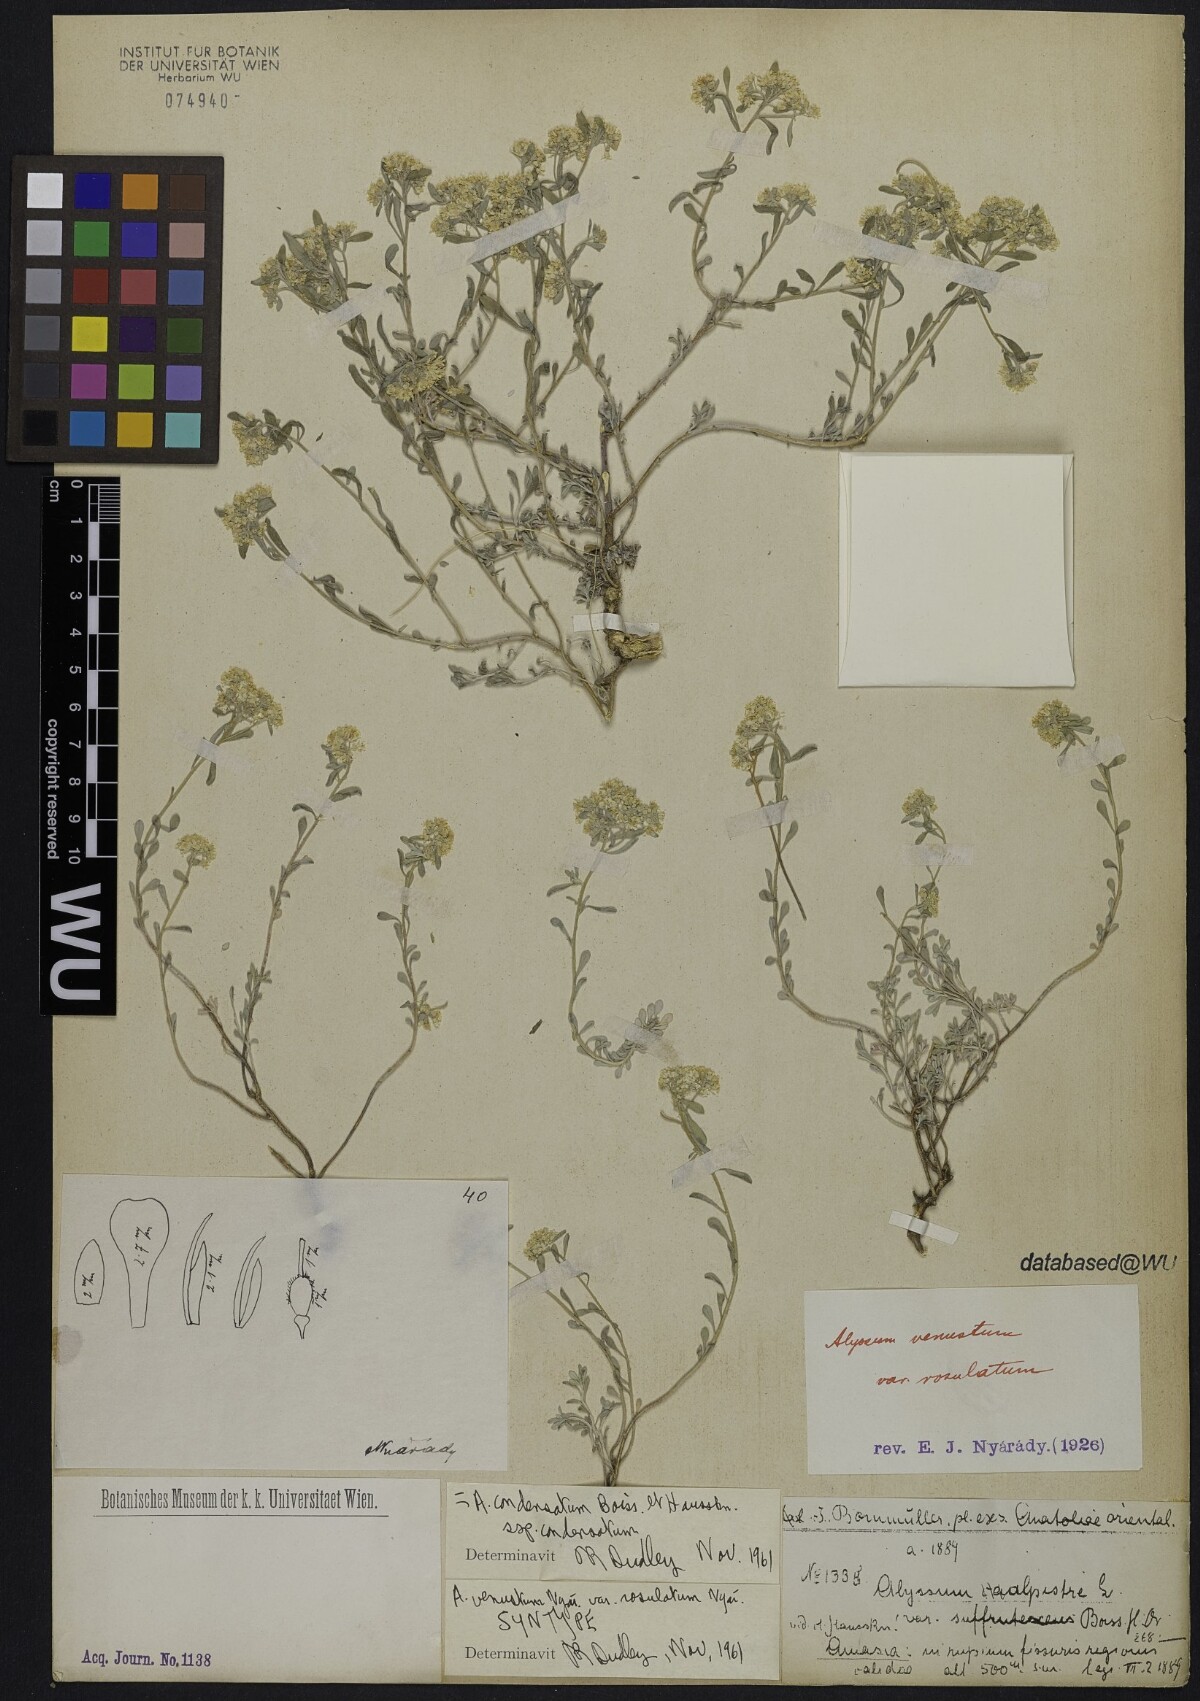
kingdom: Plantae
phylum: Tracheophyta
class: Magnoliopsida
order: Brassicales
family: Brassicaceae
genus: Odontarrhena
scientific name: Odontarrhena condensata
